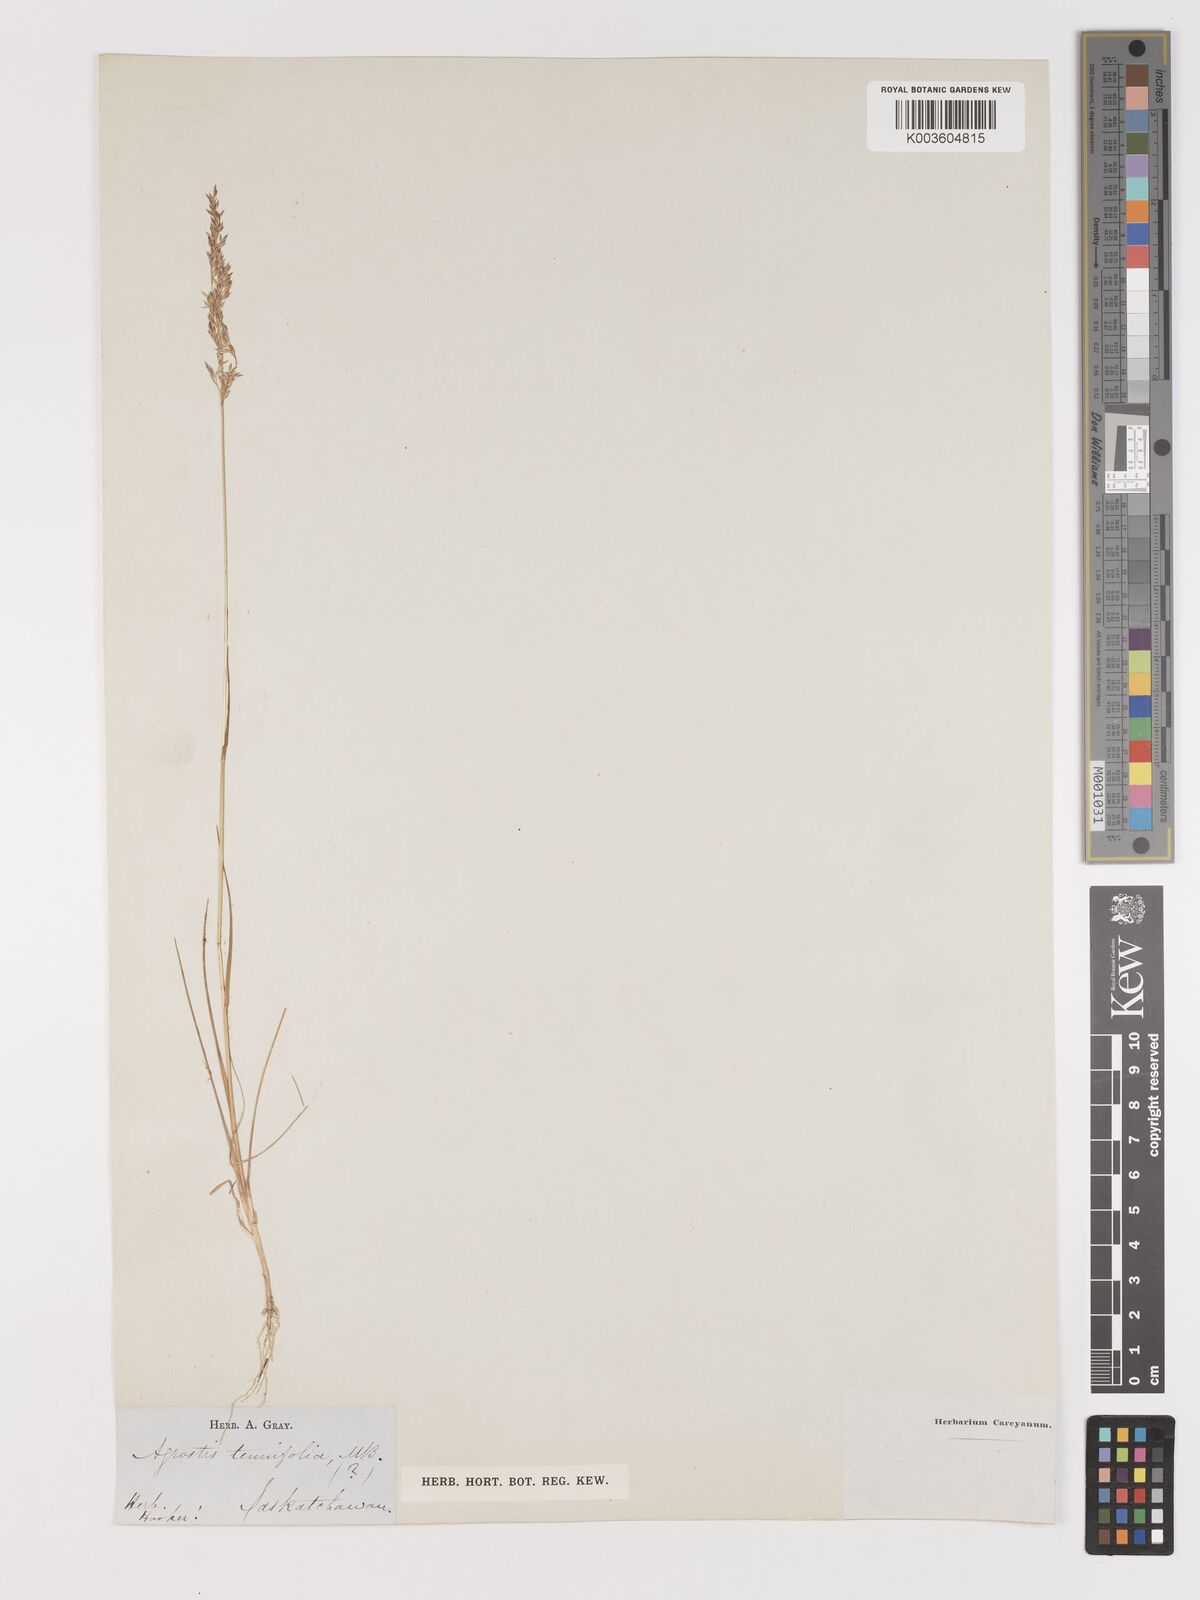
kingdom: Plantae
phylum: Tracheophyta
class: Liliopsida
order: Poales
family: Poaceae
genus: Agrostis
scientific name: Agrostis
